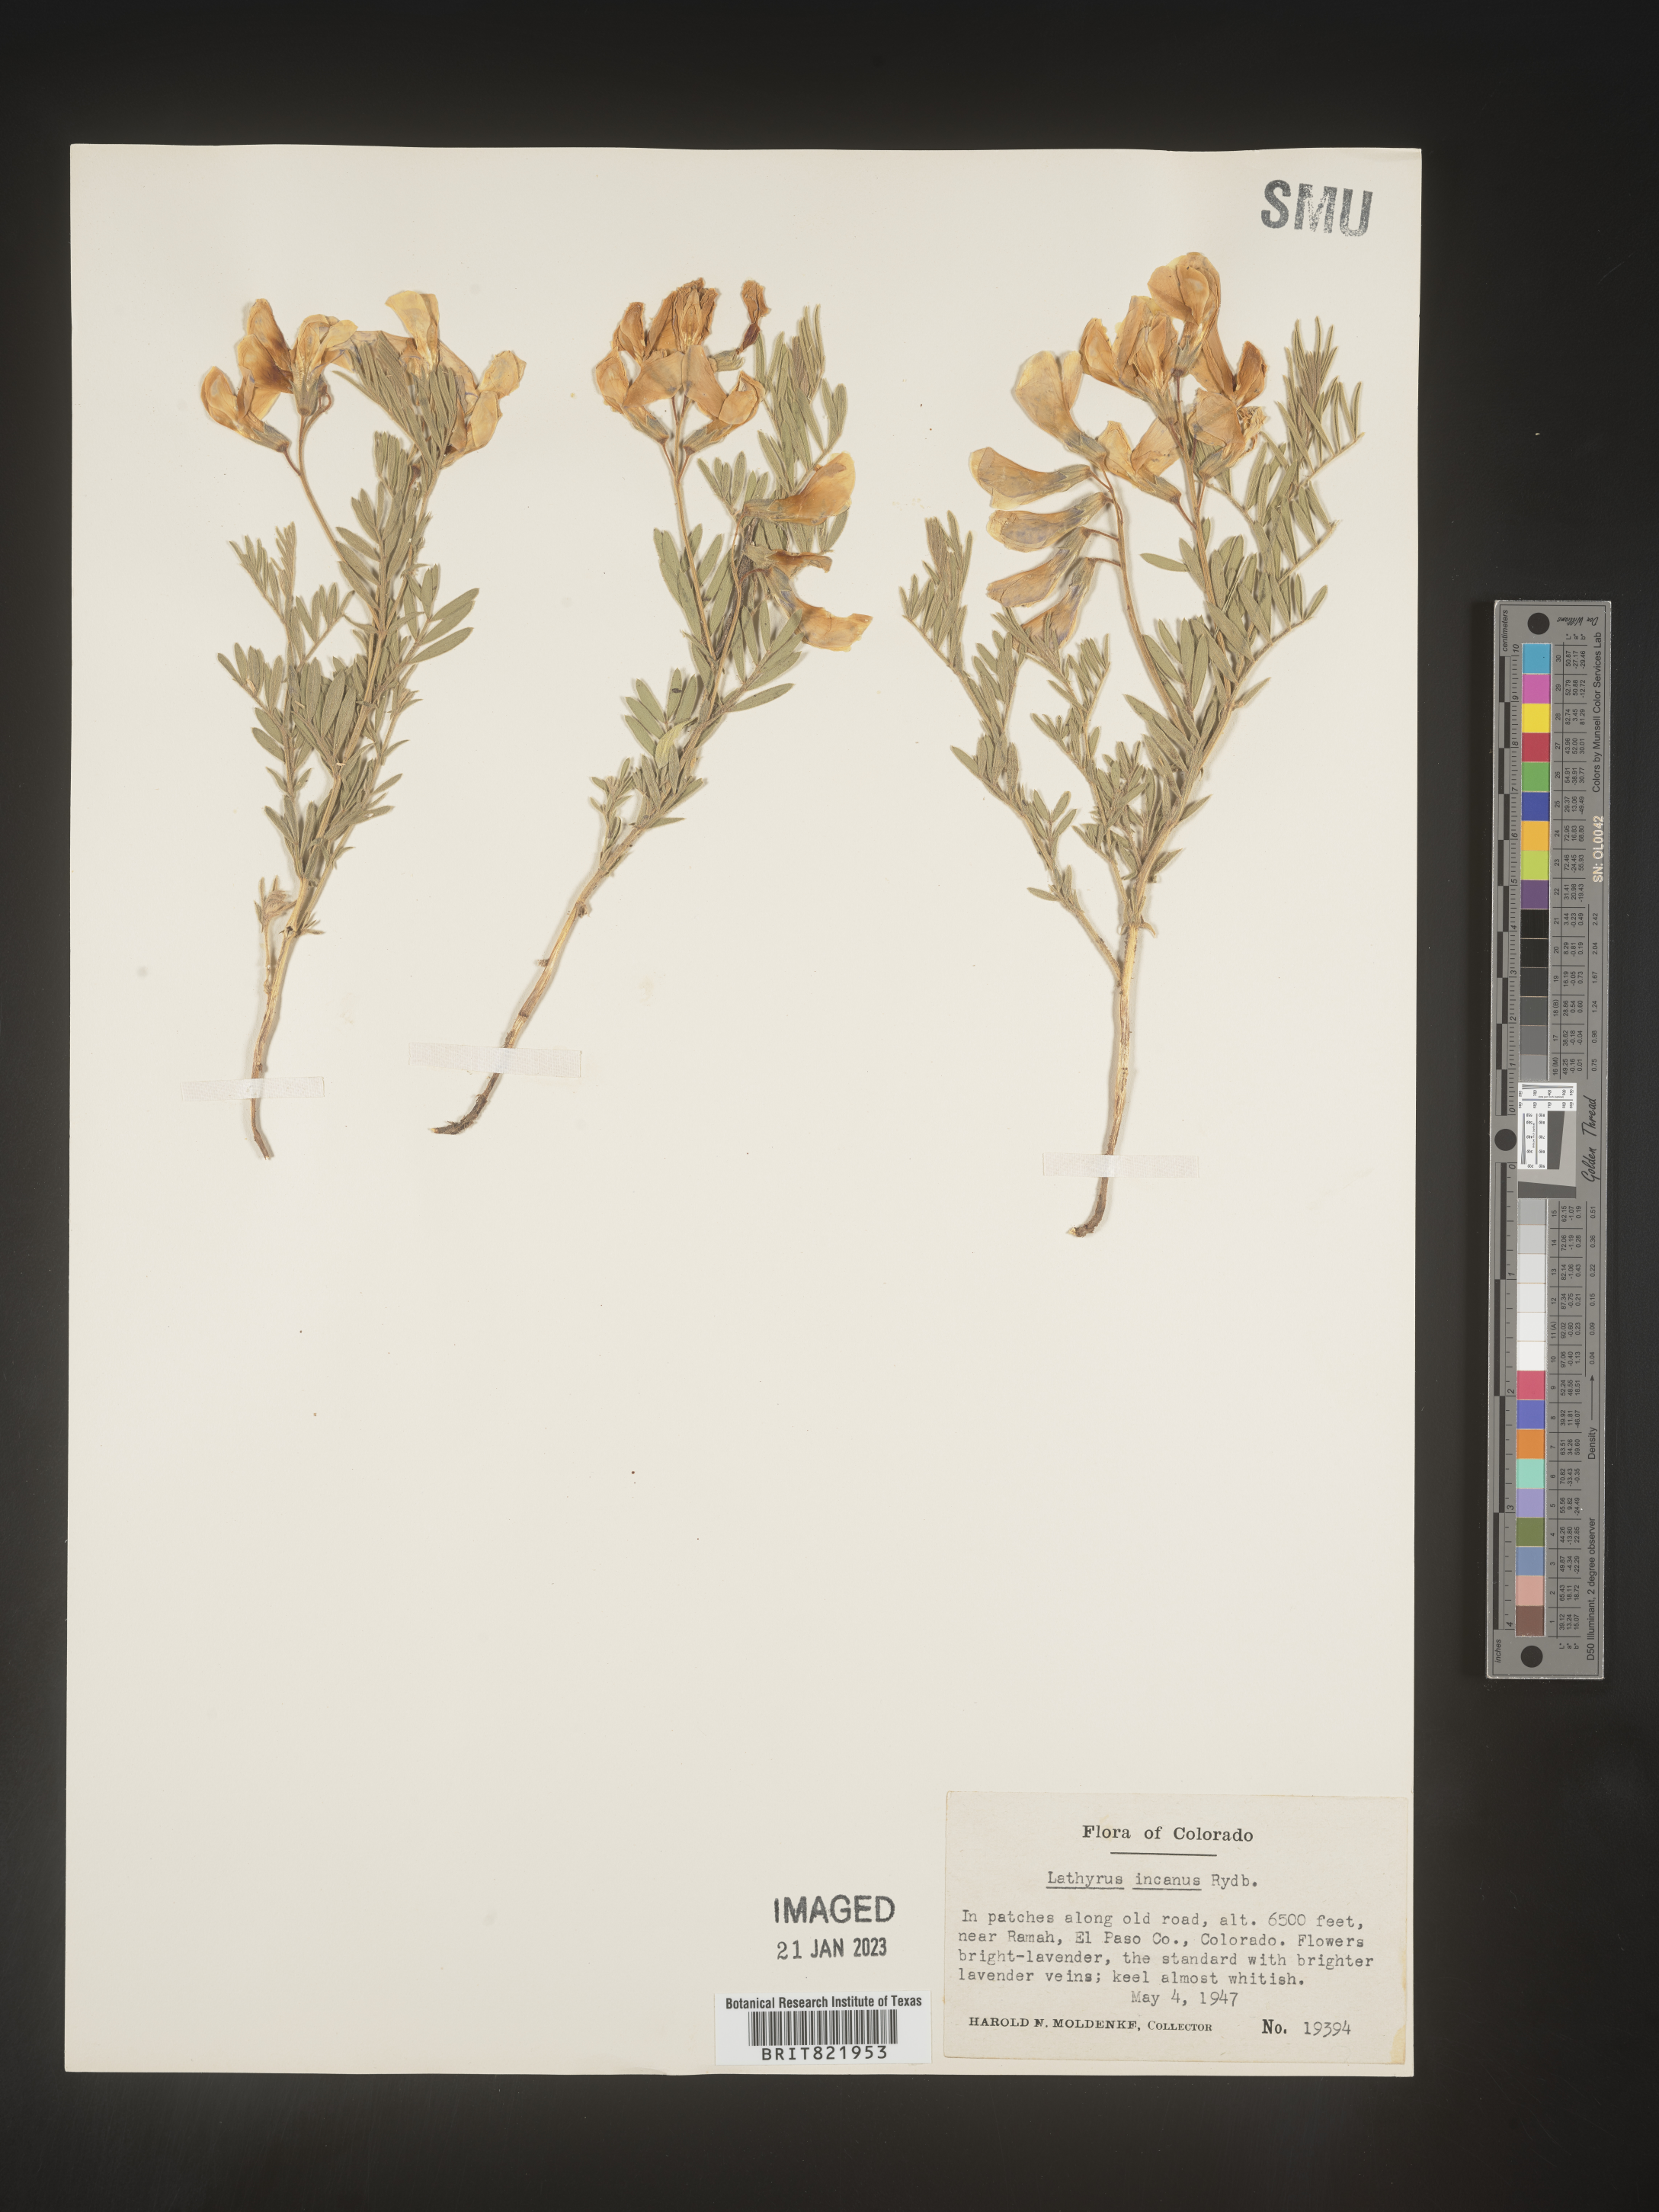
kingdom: Plantae
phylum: Tracheophyta
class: Magnoliopsida
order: Fabales
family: Fabaceae
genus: Lathyrus
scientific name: Lathyrus hirsutus
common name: Hairy vetchling
